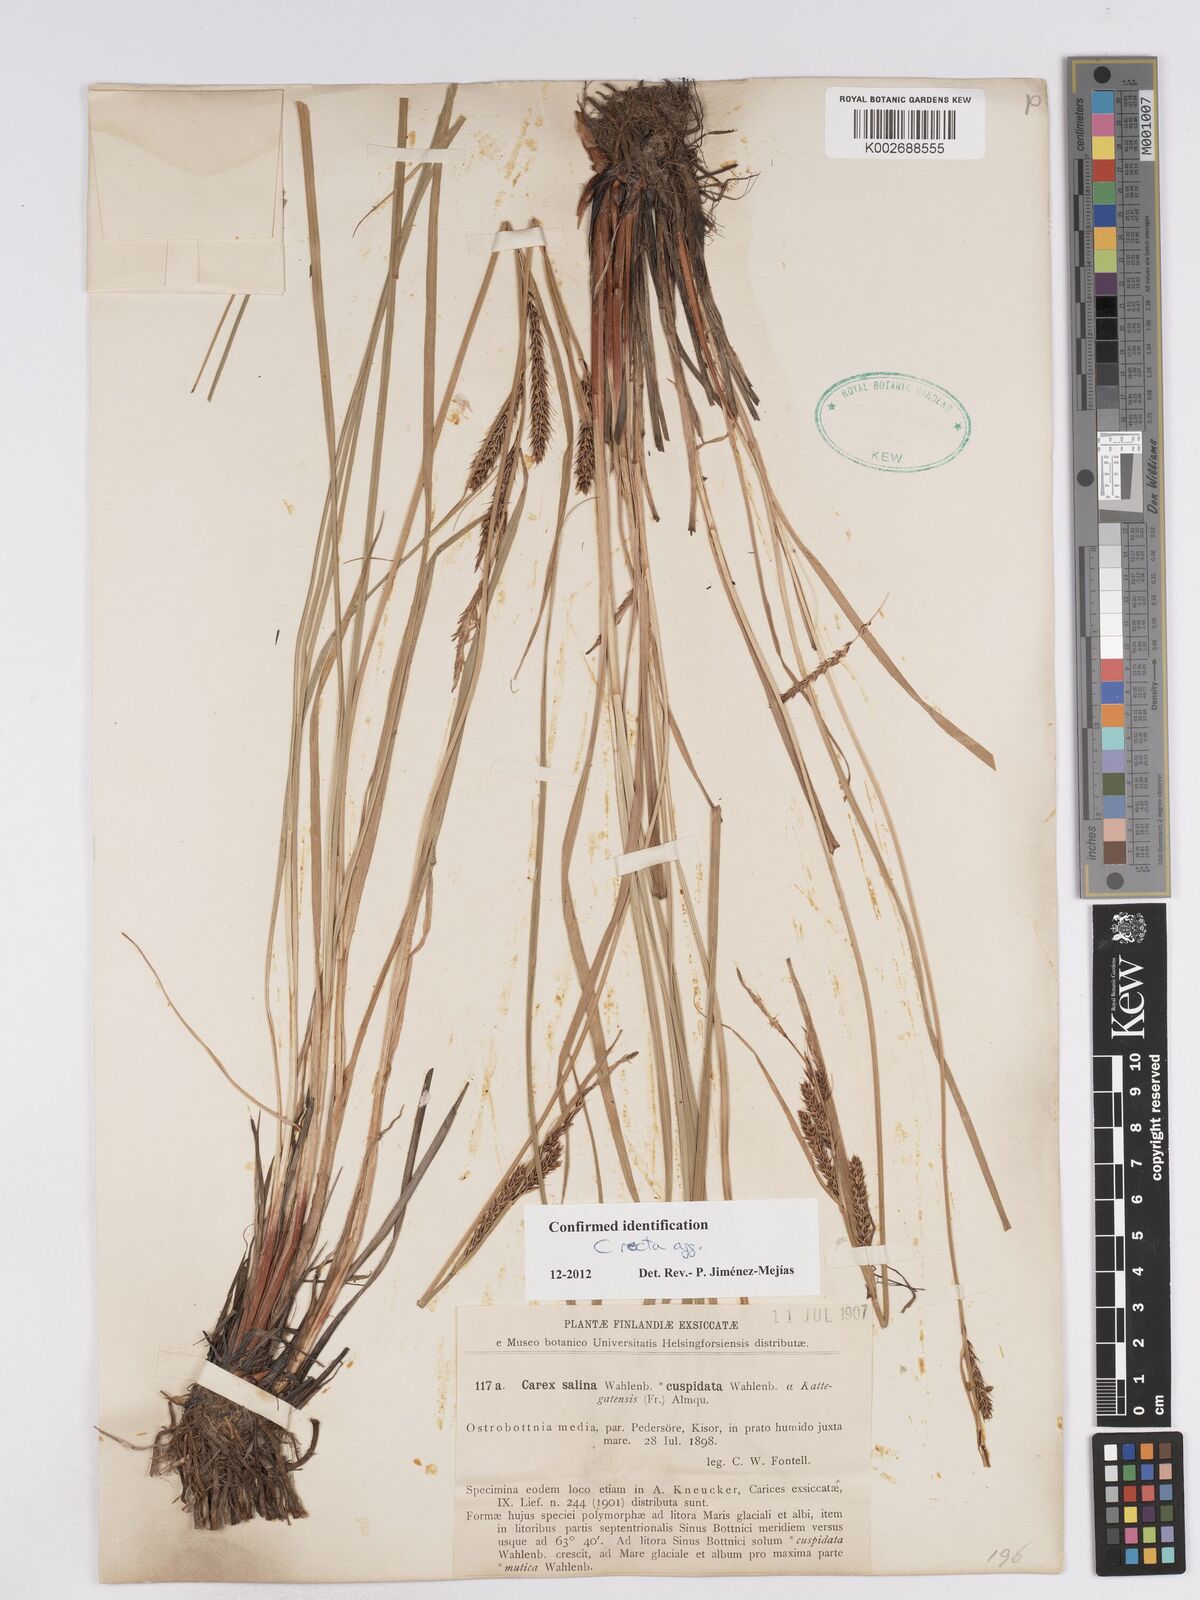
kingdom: Plantae
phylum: Tracheophyta
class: Liliopsida
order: Poales
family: Cyperaceae
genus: Carex
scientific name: Carex recta
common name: Estuarine sedge
